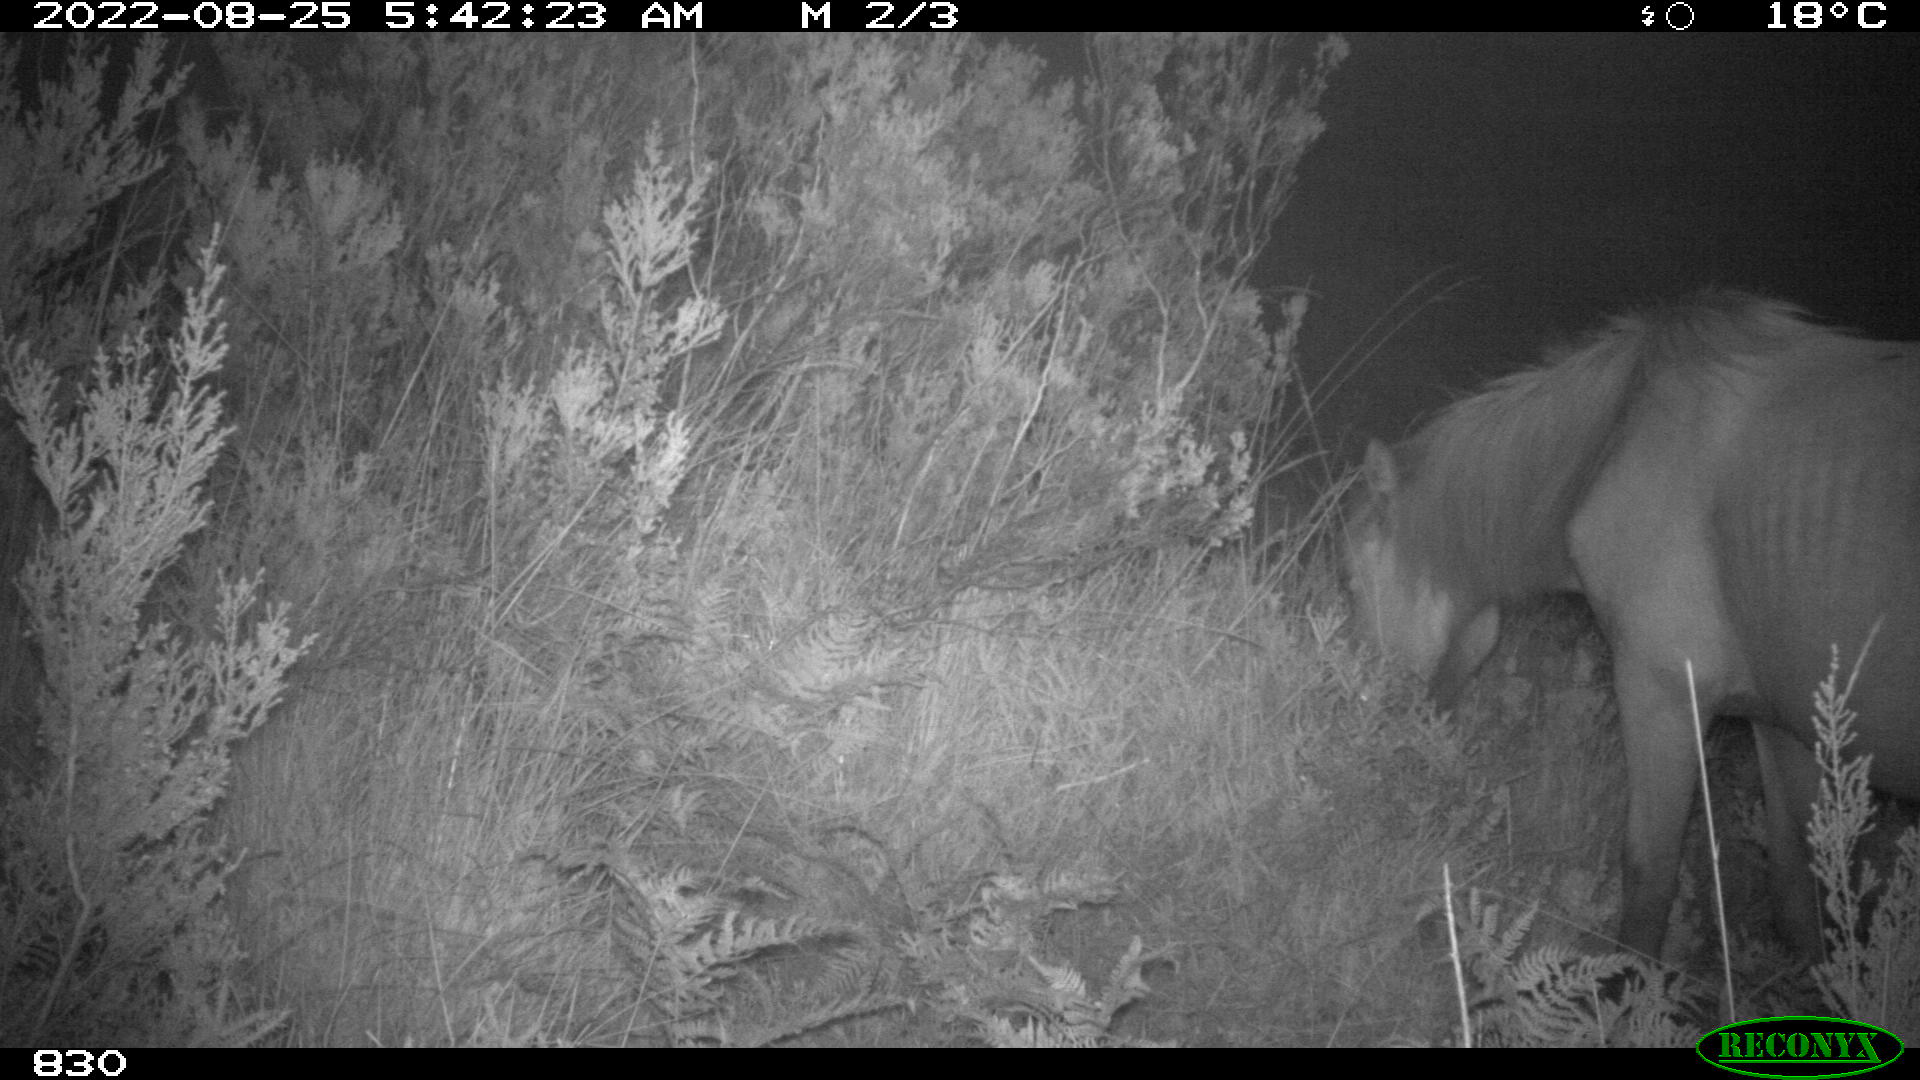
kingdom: Animalia
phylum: Chordata
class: Mammalia
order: Perissodactyla
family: Equidae
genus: Equus
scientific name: Equus caballus
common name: Horse
